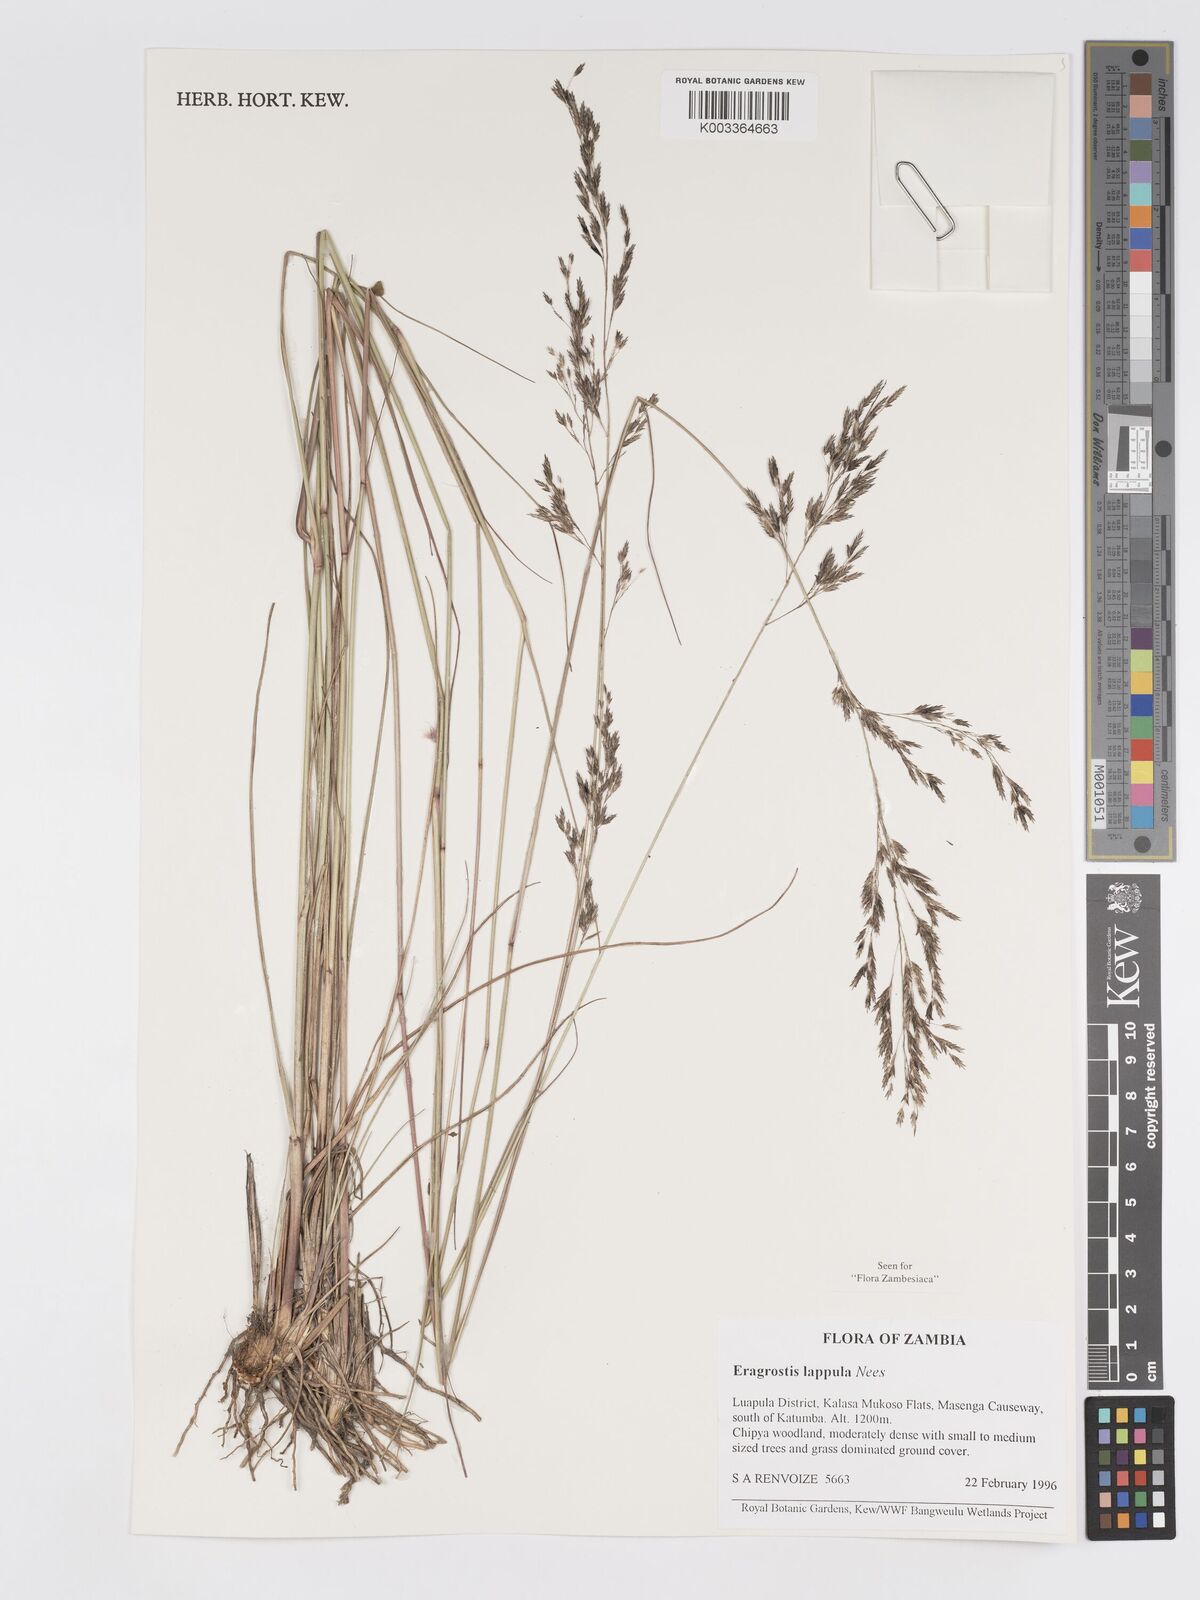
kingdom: Plantae
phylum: Tracheophyta
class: Liliopsida
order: Poales
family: Poaceae
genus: Eragrostis
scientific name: Eragrostis lappula
